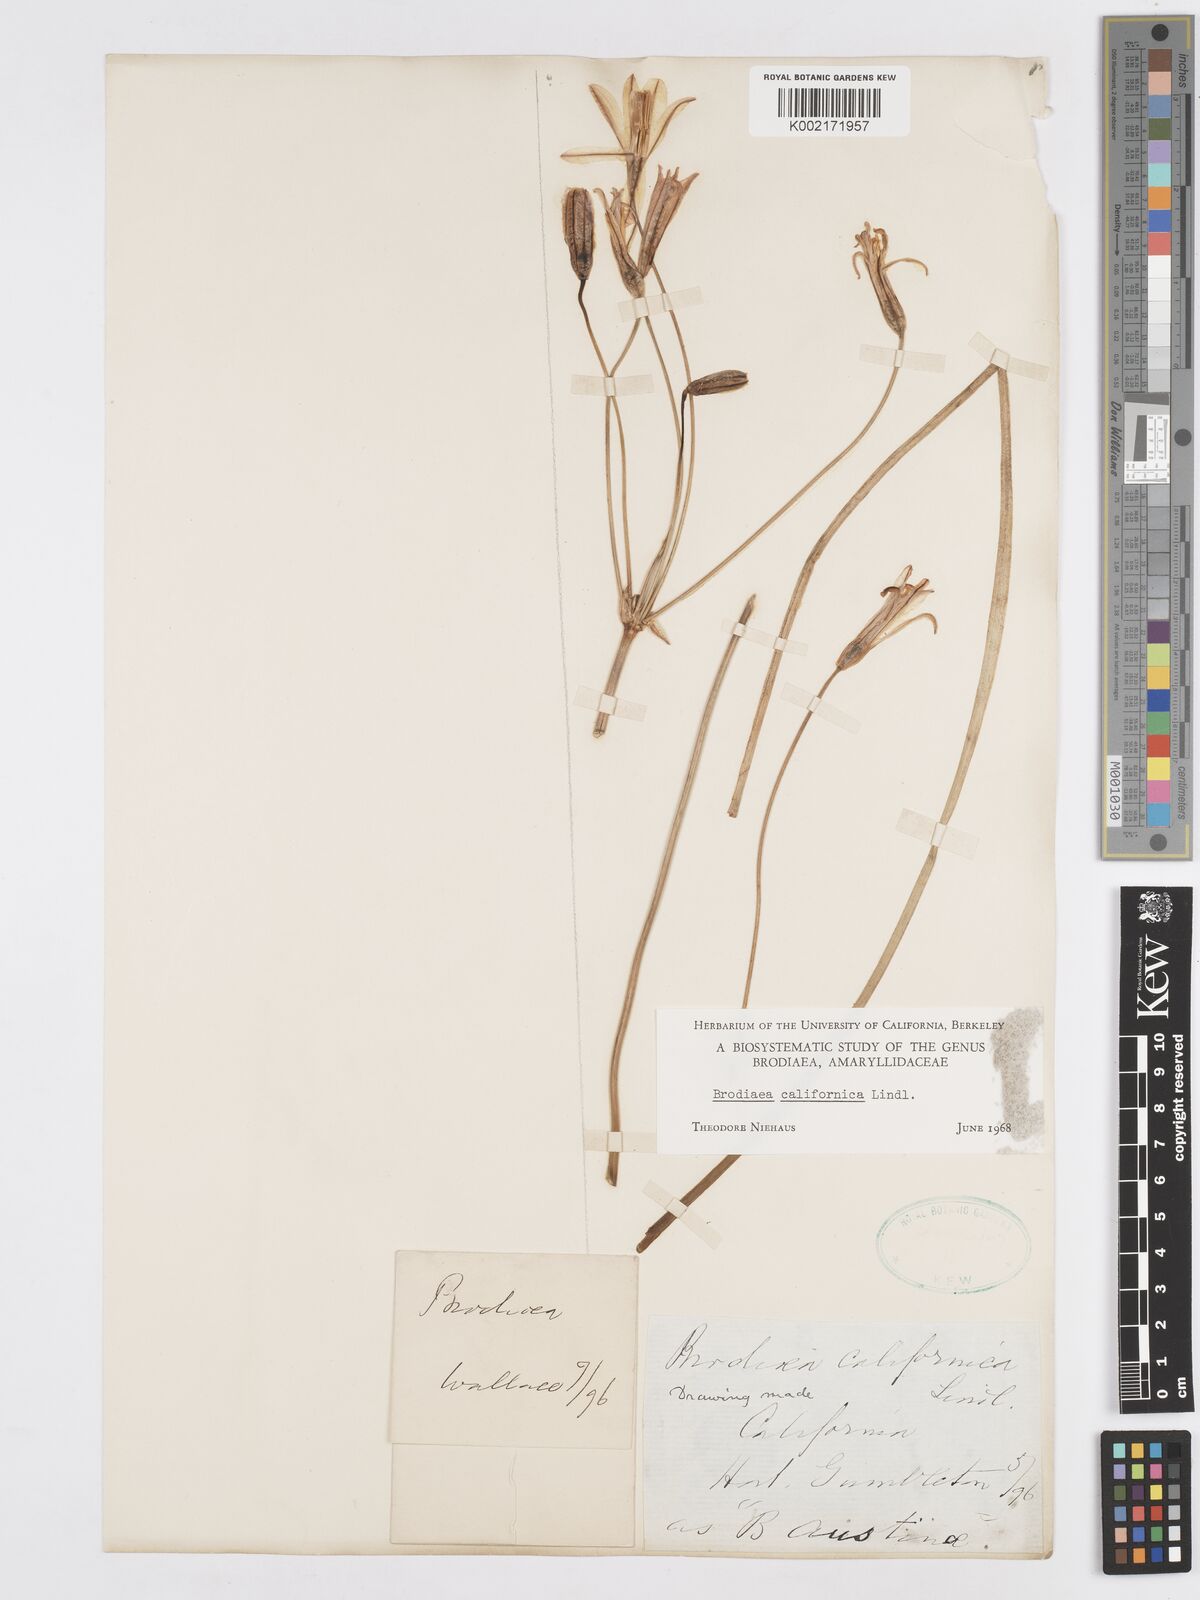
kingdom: Plantae
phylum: Tracheophyta
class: Liliopsida
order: Asparagales
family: Asparagaceae
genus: Brodiaea
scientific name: Brodiaea californica
